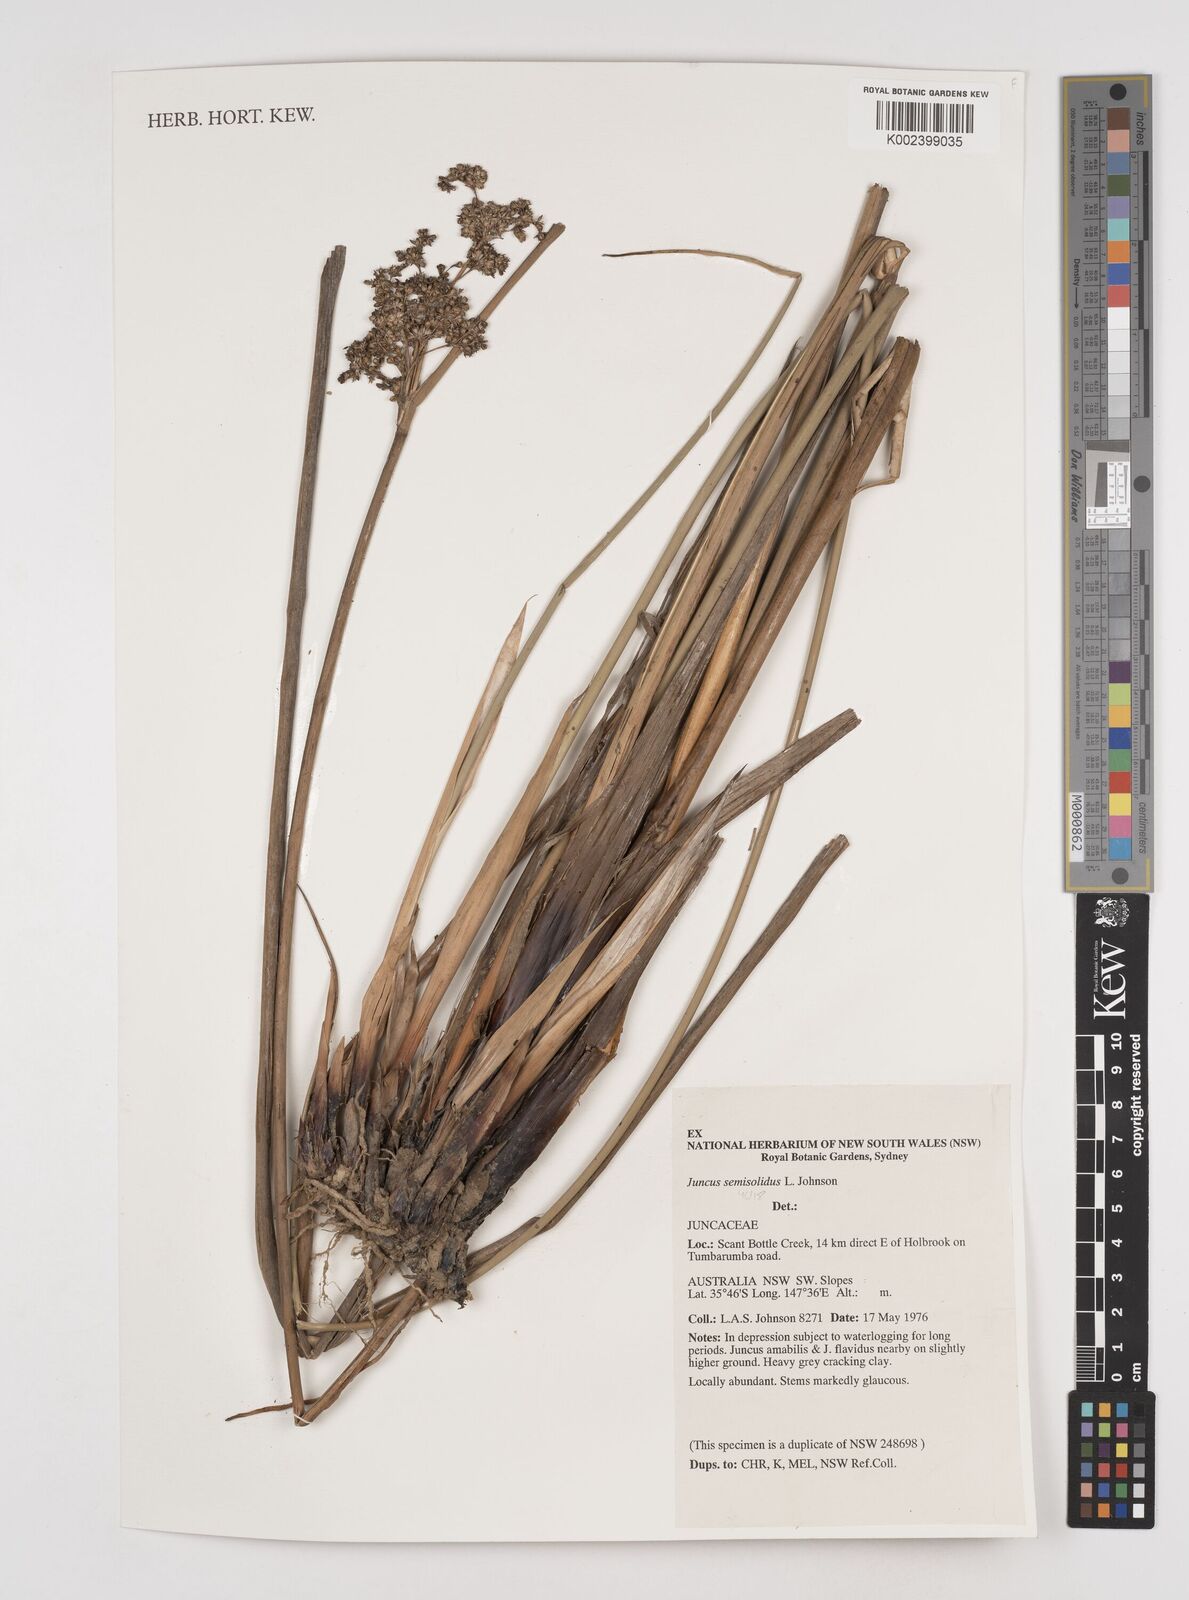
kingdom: Plantae
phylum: Tracheophyta
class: Liliopsida
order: Poales
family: Juncaceae
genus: Juncus
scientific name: Juncus semisolidus
